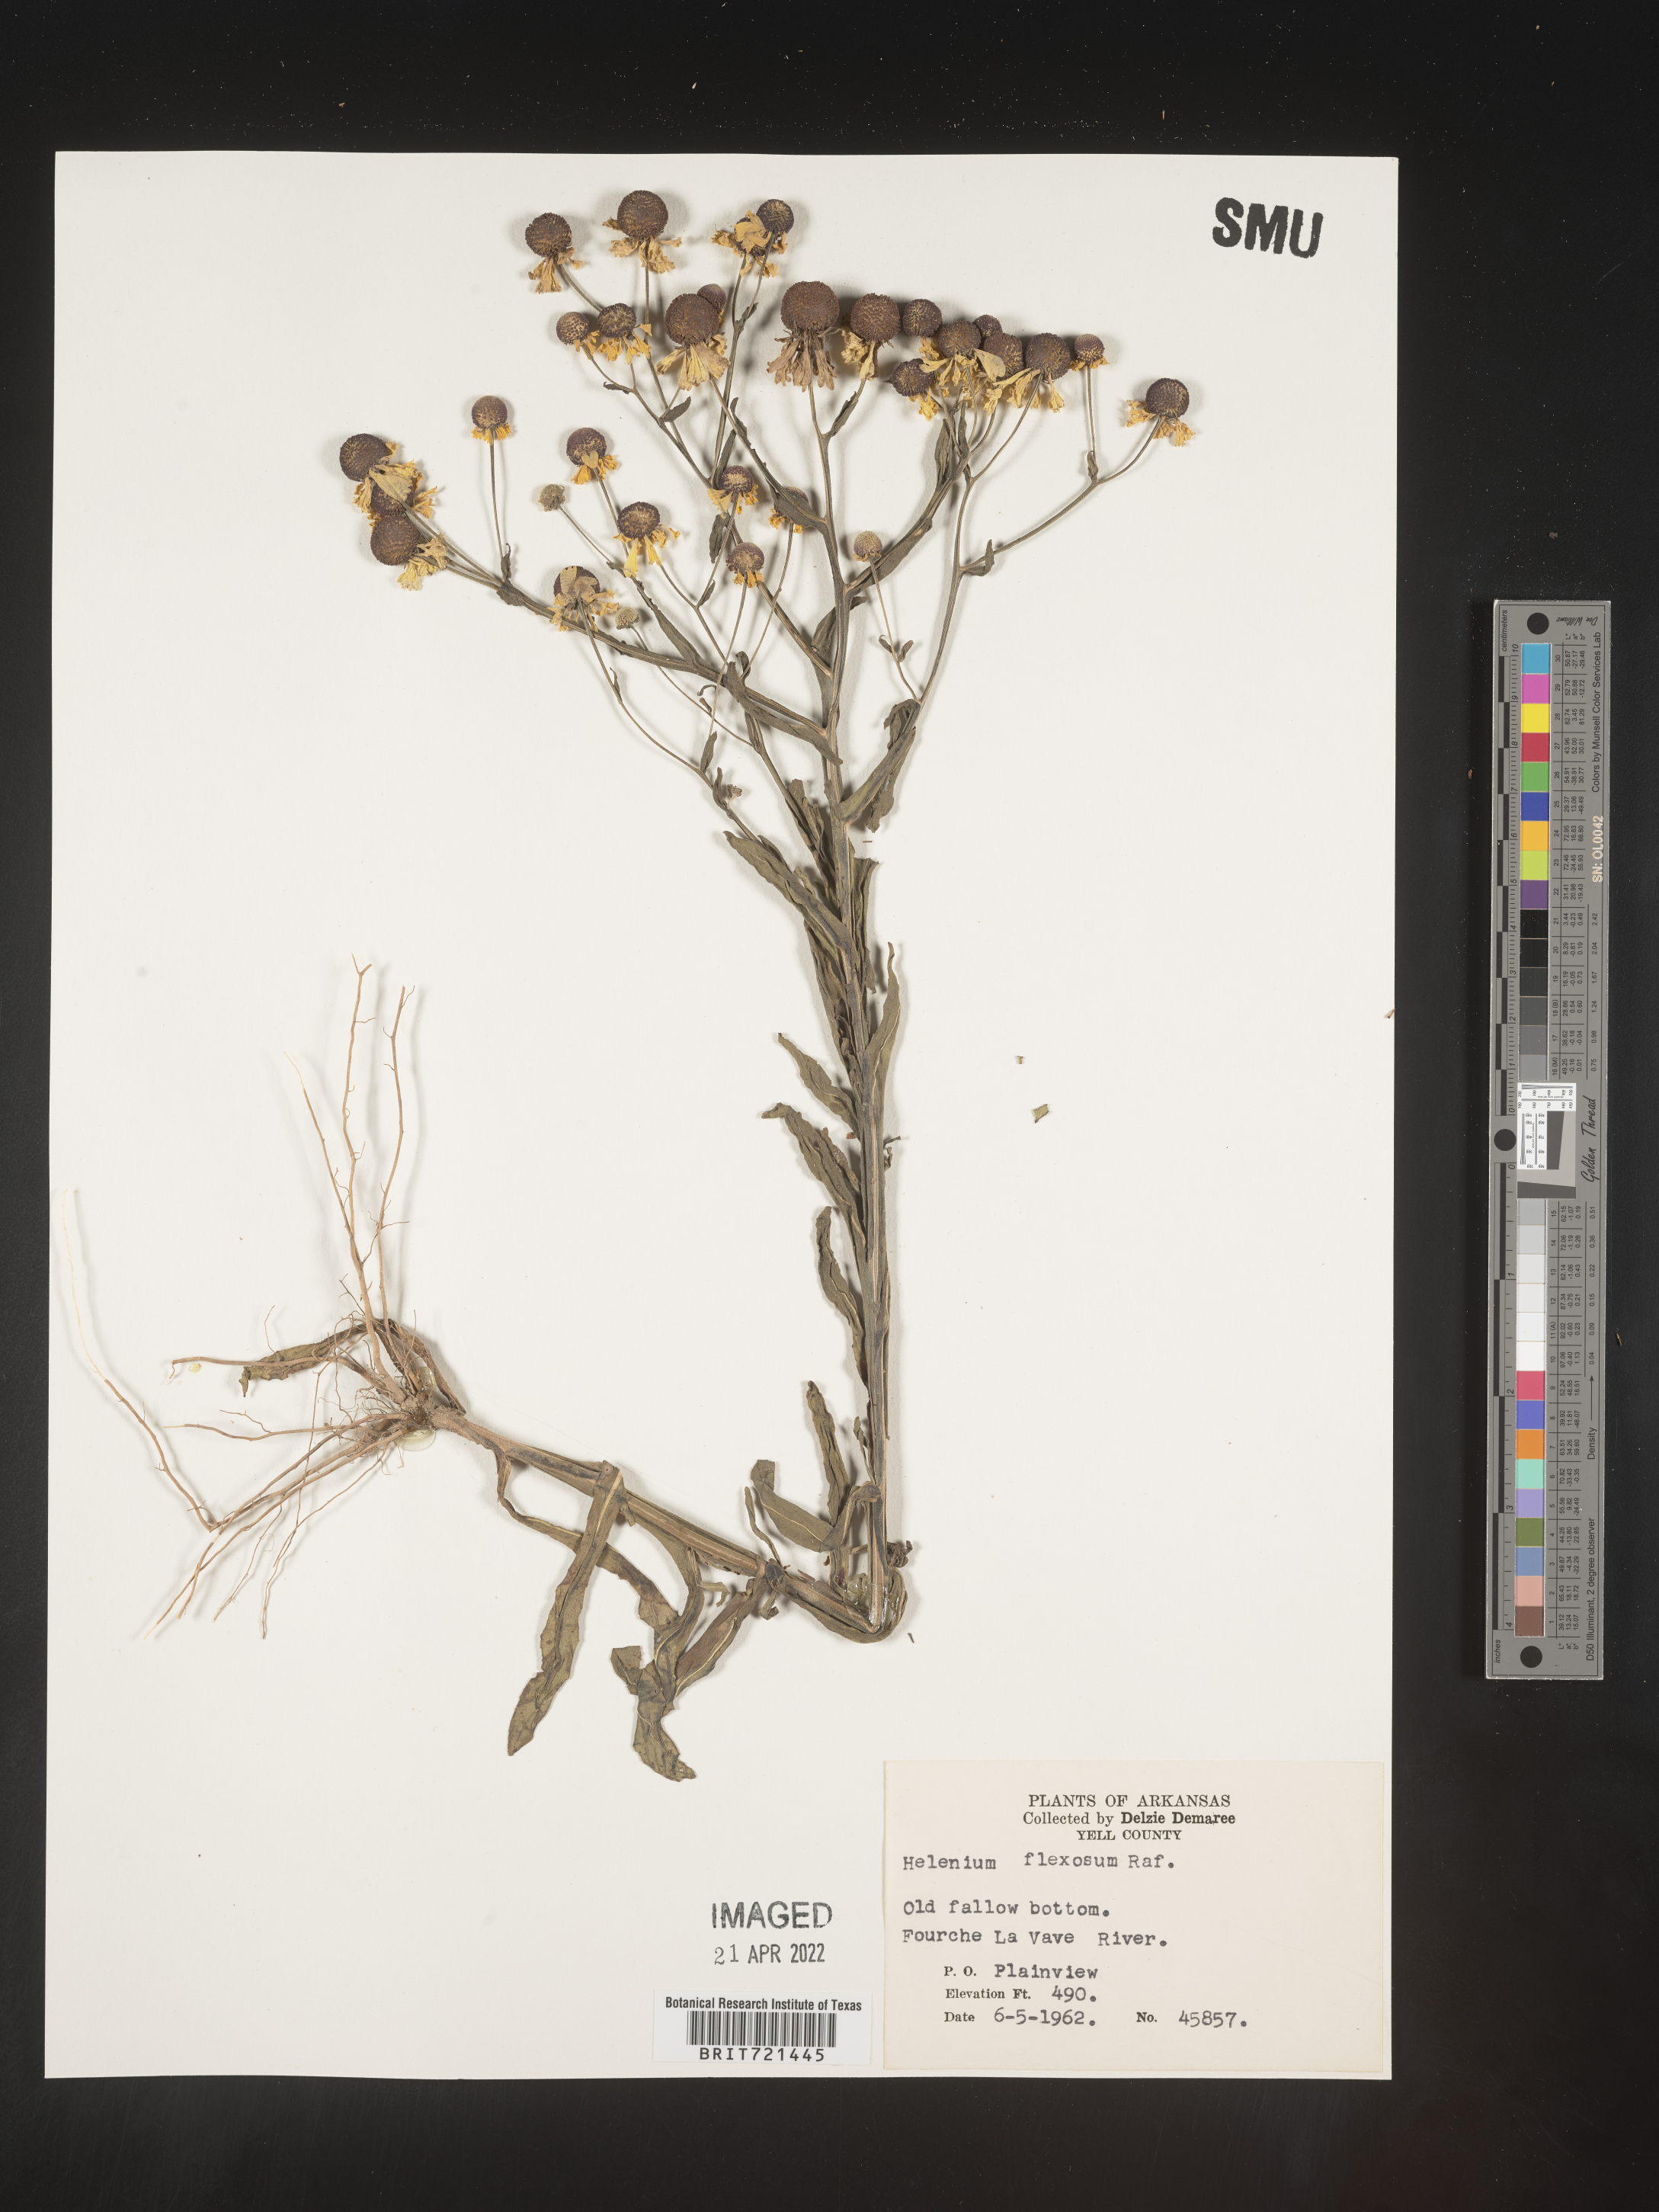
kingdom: Plantae
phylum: Tracheophyta
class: Magnoliopsida
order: Asterales
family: Asteraceae
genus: Helenium
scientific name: Helenium flexuosum
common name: Naked-flowered sneezeweed
